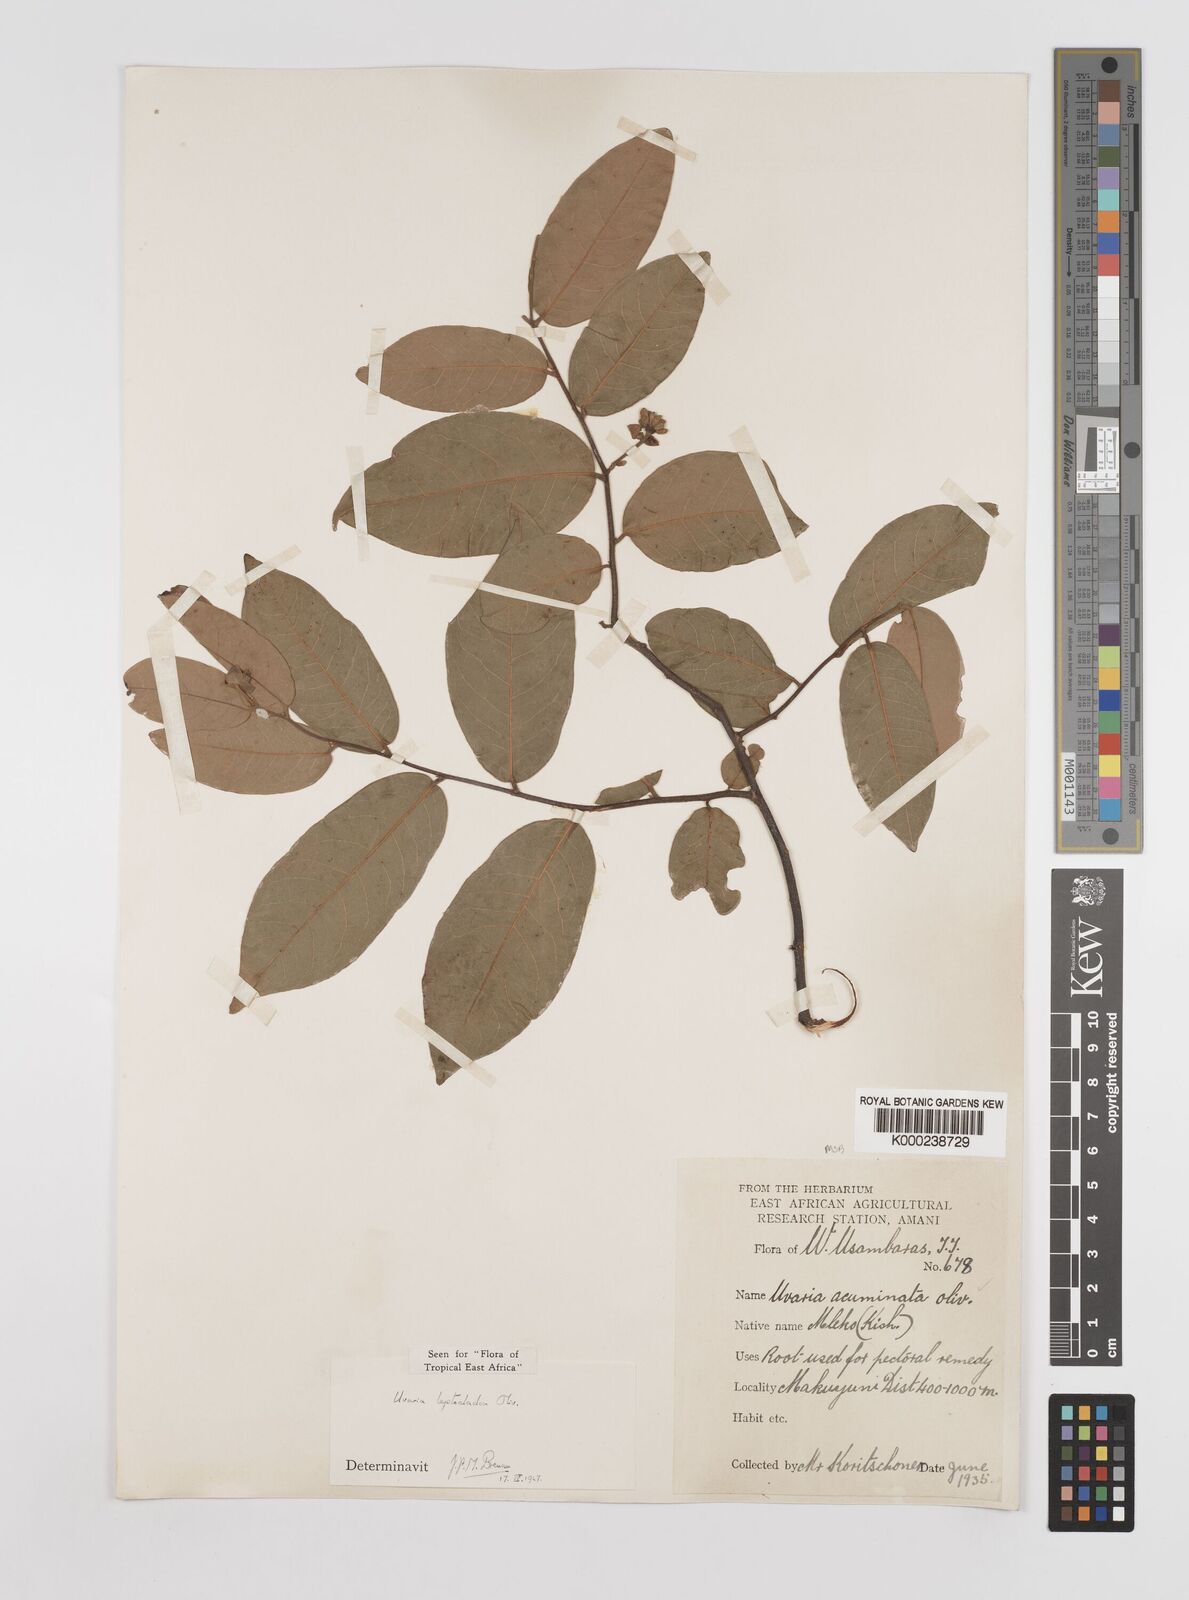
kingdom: Plantae
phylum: Tracheophyta
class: Magnoliopsida
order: Magnoliales
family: Annonaceae
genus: Uvaria
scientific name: Uvaria leptocladon
